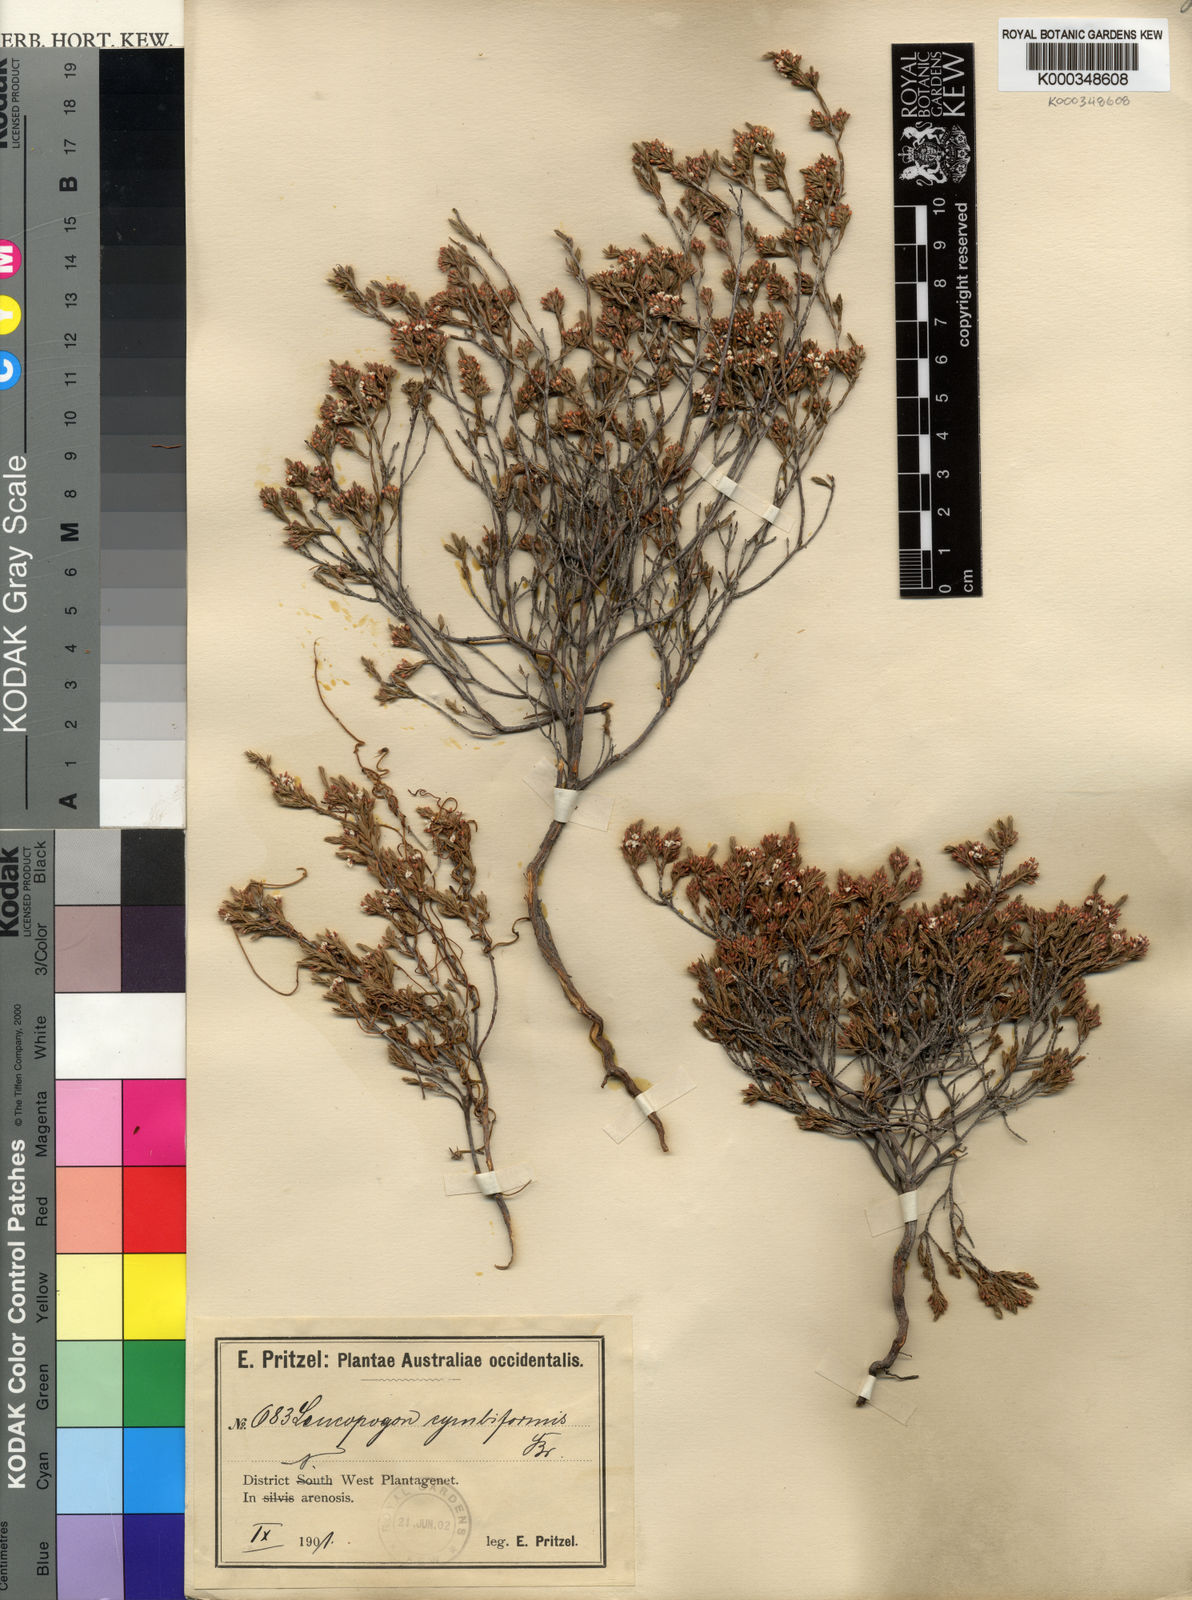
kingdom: Plantae
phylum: Tracheophyta
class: Magnoliopsida
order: Ericales
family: Ericaceae
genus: Styphelia
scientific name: Styphelia cymbiformis
